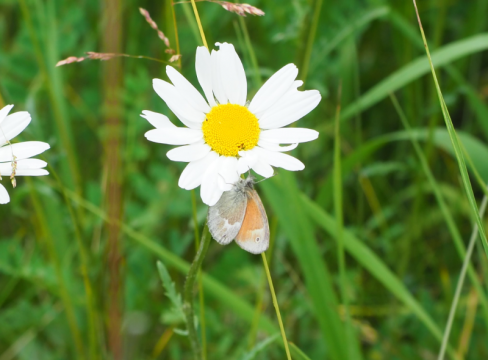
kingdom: Animalia
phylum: Arthropoda
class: Insecta
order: Lepidoptera
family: Nymphalidae
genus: Coenonympha
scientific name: Coenonympha tullia
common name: Large Heath
